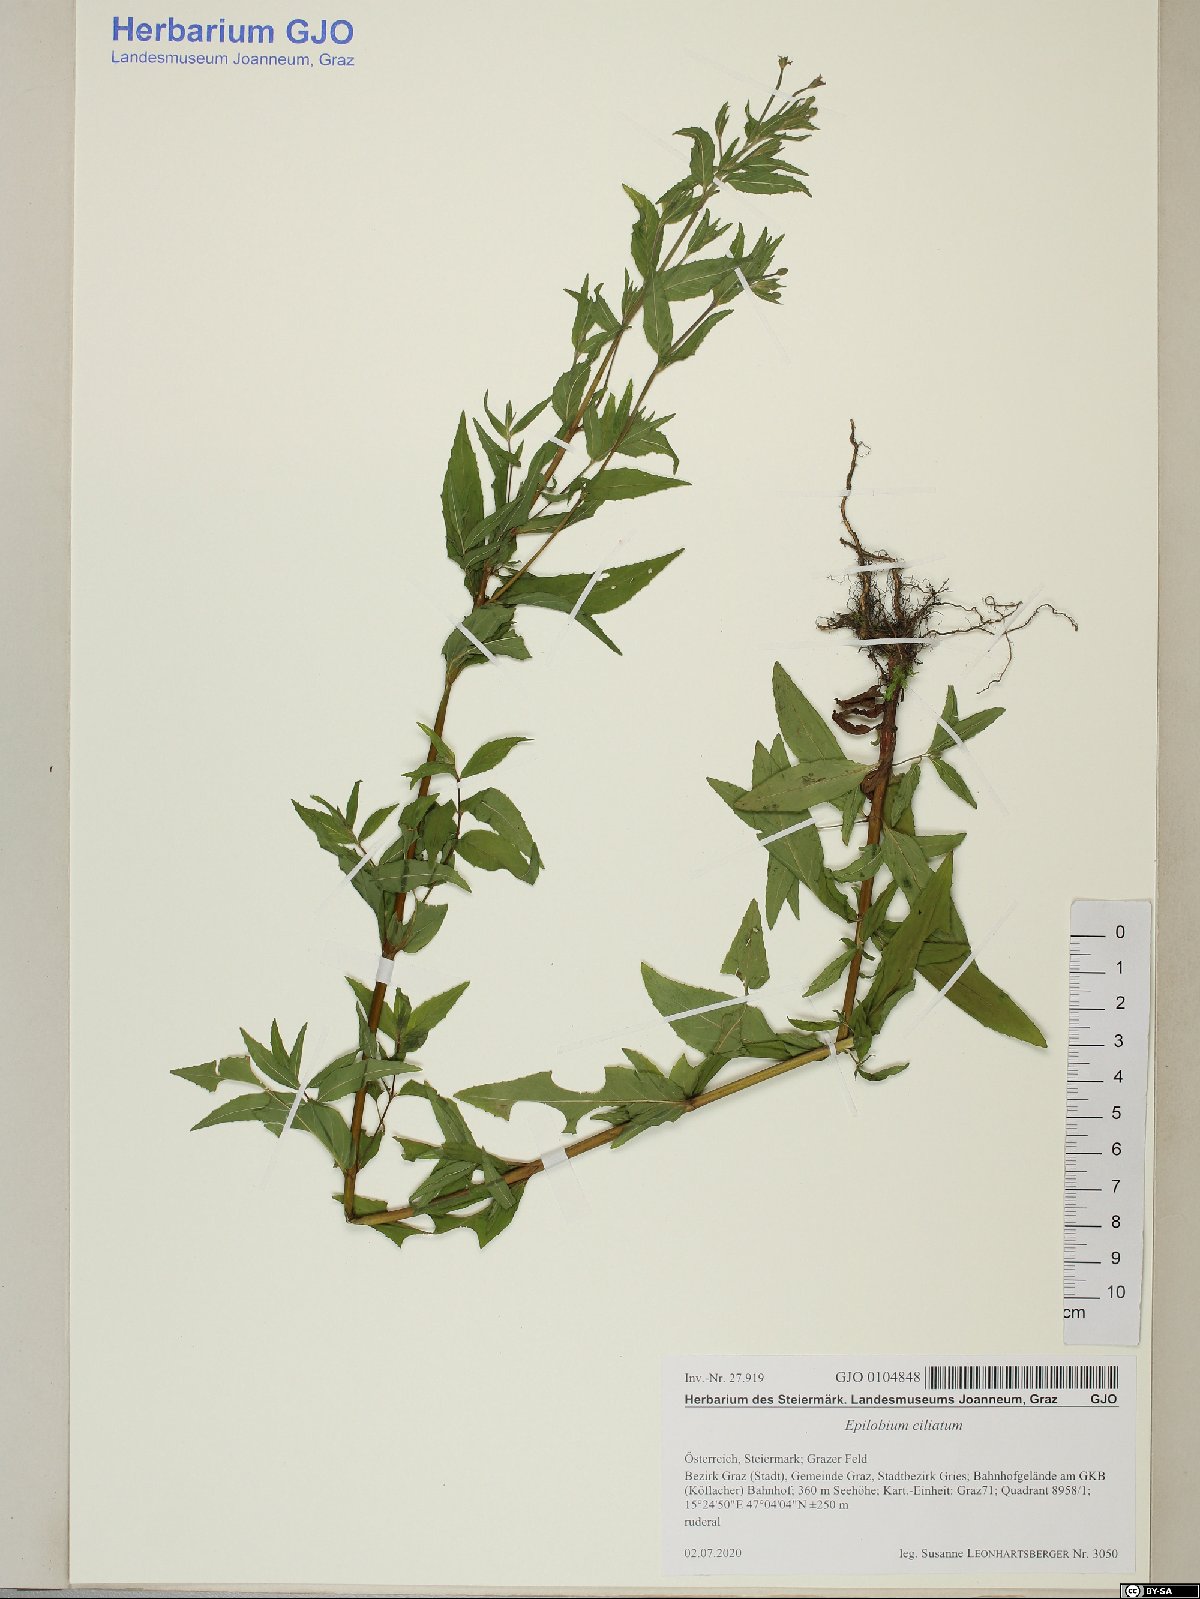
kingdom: Plantae
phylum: Tracheophyta
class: Magnoliopsida
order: Myrtales
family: Onagraceae
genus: Epilobium
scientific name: Epilobium ciliatum
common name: American willowherb
